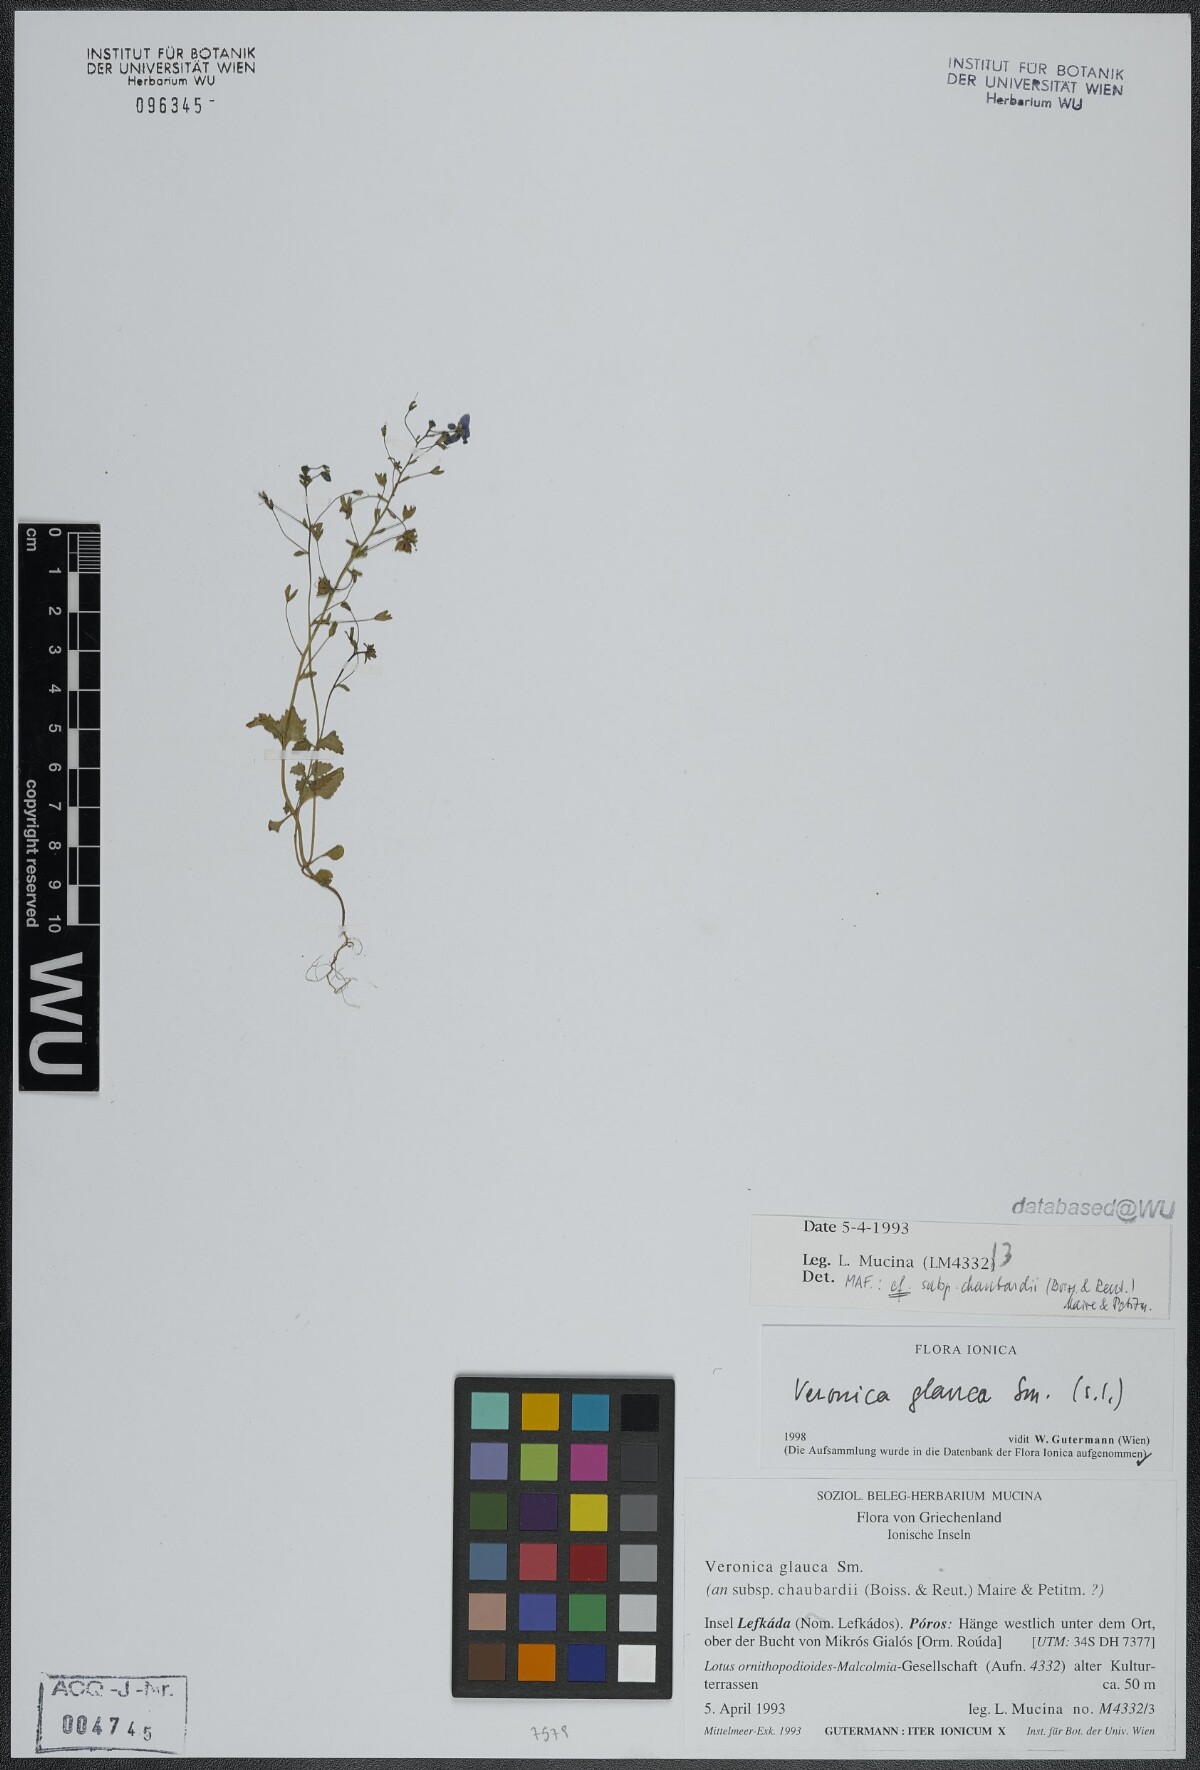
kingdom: Plantae
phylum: Tracheophyta
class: Magnoliopsida
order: Lamiales
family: Plantaginaceae
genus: Veronica
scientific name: Veronica glauca
